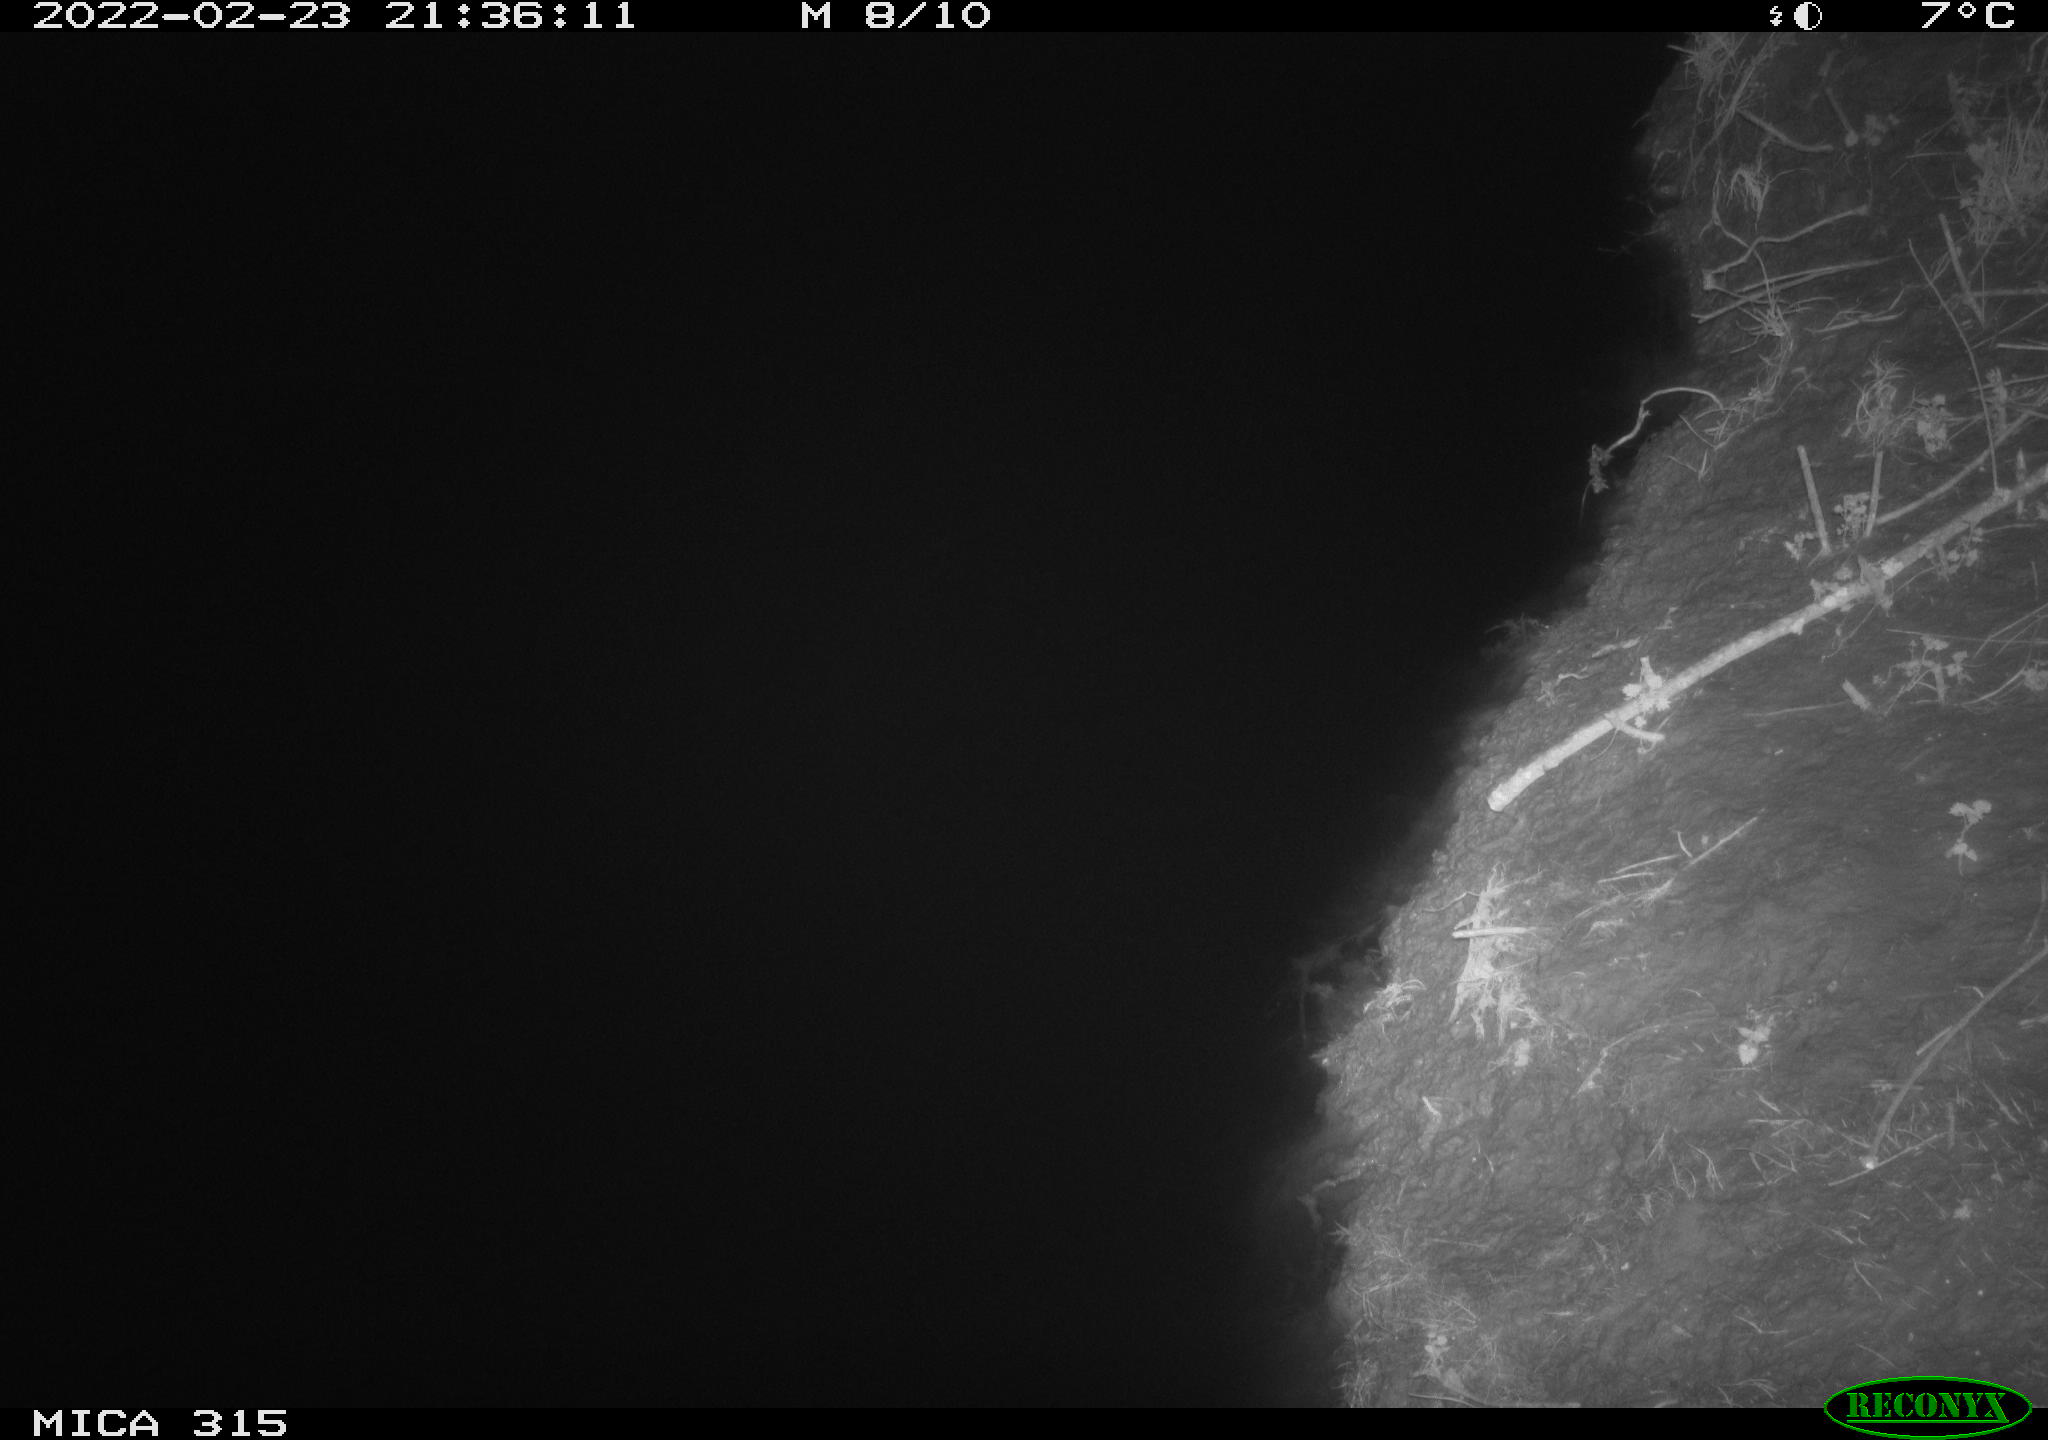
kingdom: Animalia
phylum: Chordata
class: Mammalia
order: Rodentia
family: Muridae
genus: Rattus
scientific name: Rattus norvegicus
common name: Brown rat
